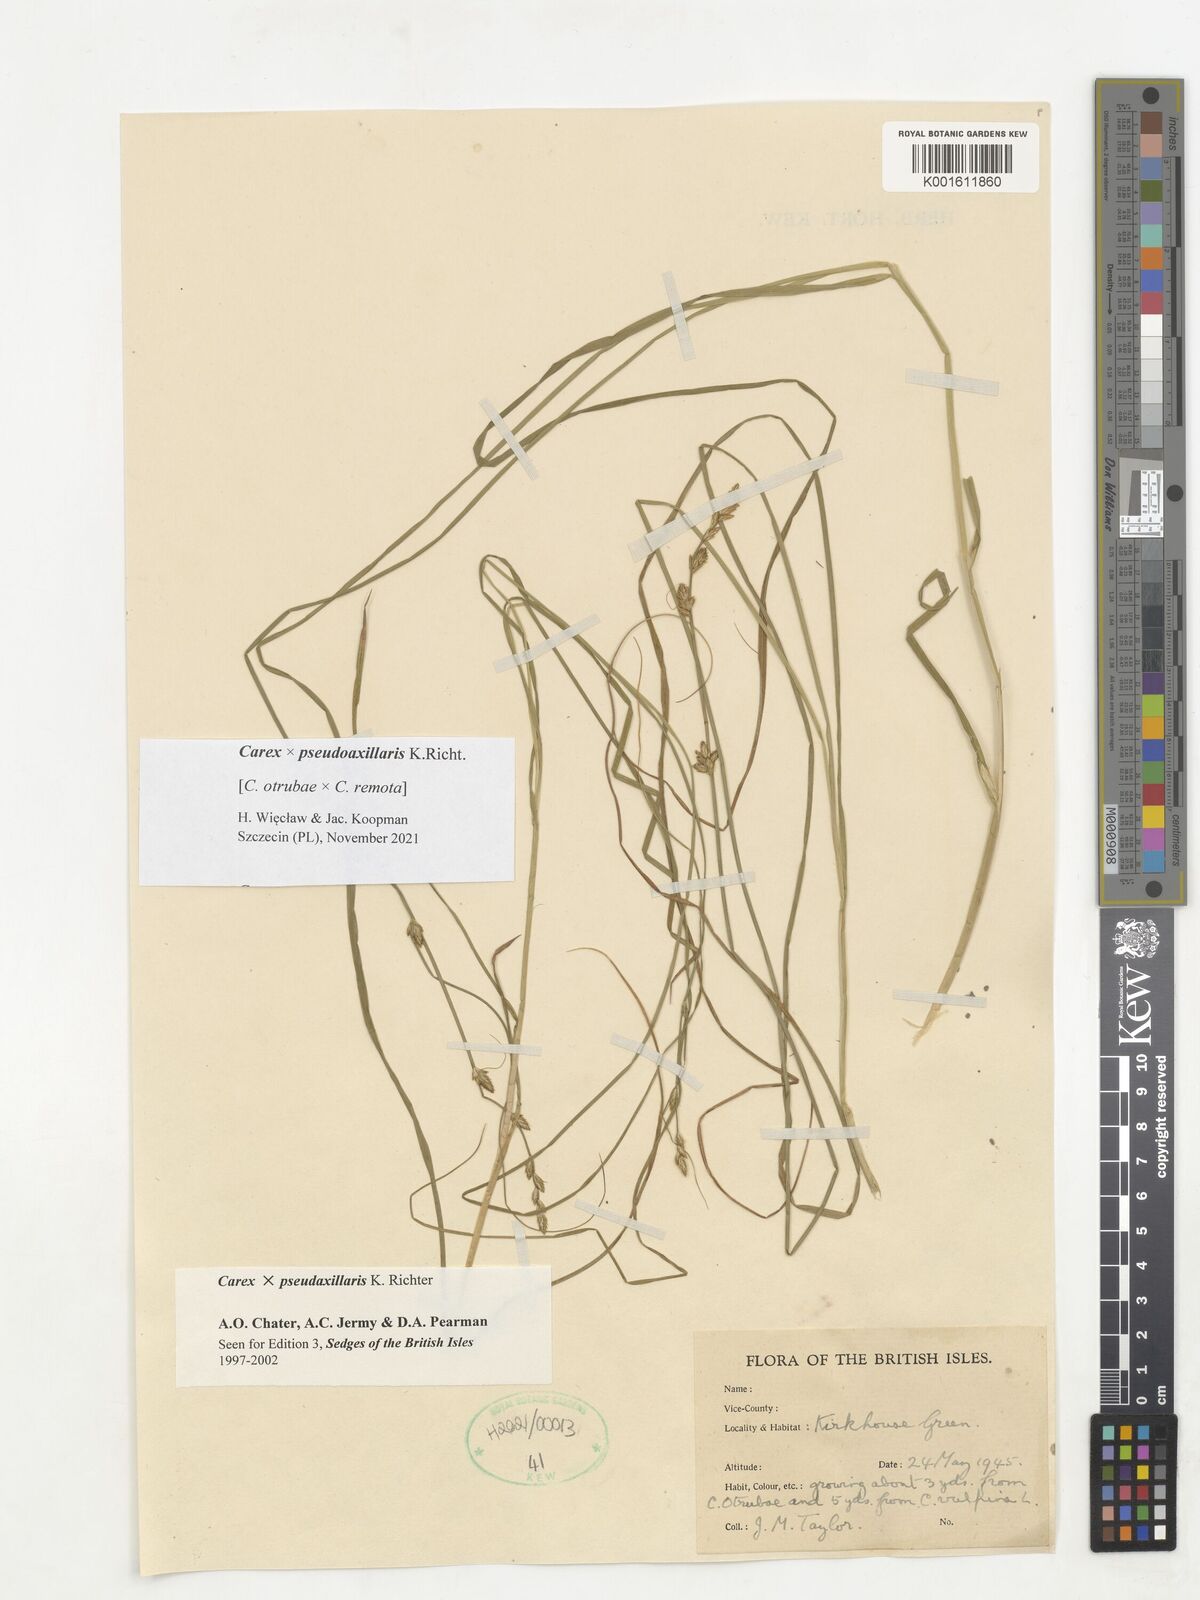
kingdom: Plantae
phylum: Tracheophyta
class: Liliopsida
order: Poales
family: Cyperaceae
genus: Carex
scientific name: Carex pseudoaxillaris
